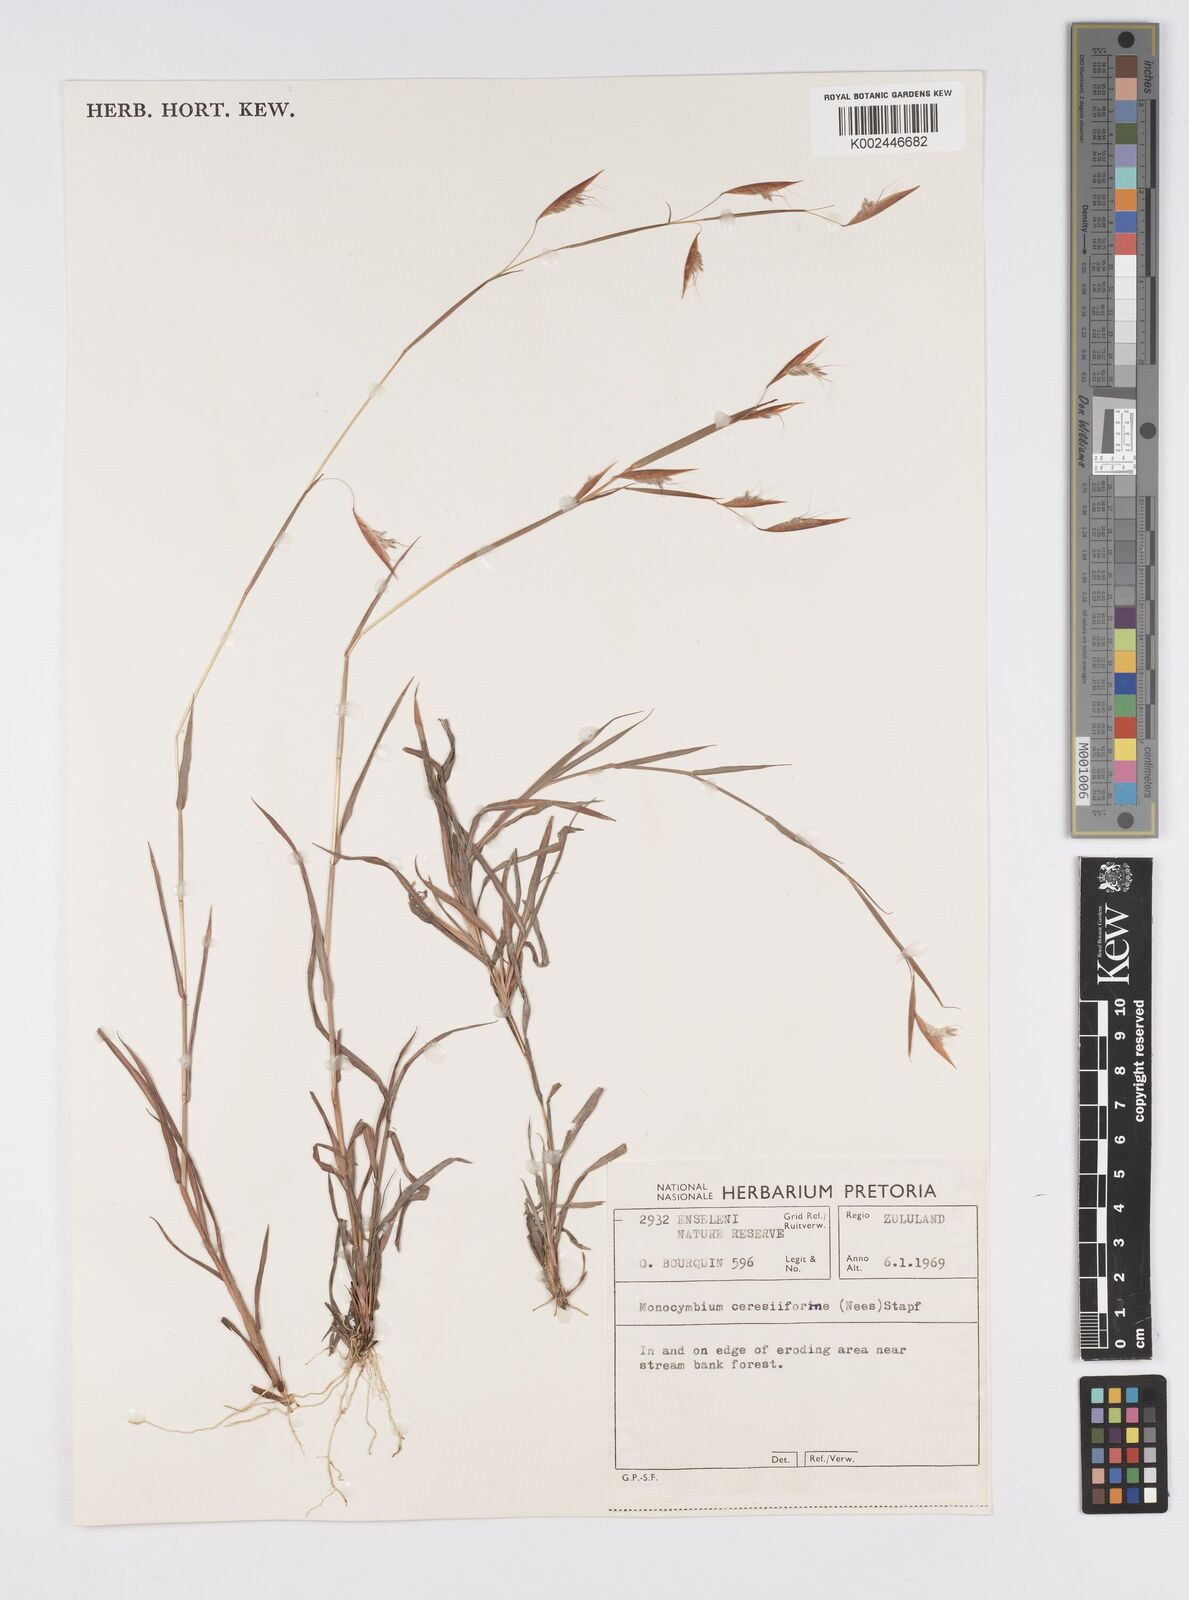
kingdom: Plantae
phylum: Tracheophyta
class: Liliopsida
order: Poales
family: Poaceae
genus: Monocymbium
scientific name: Monocymbium ceresiiforme
